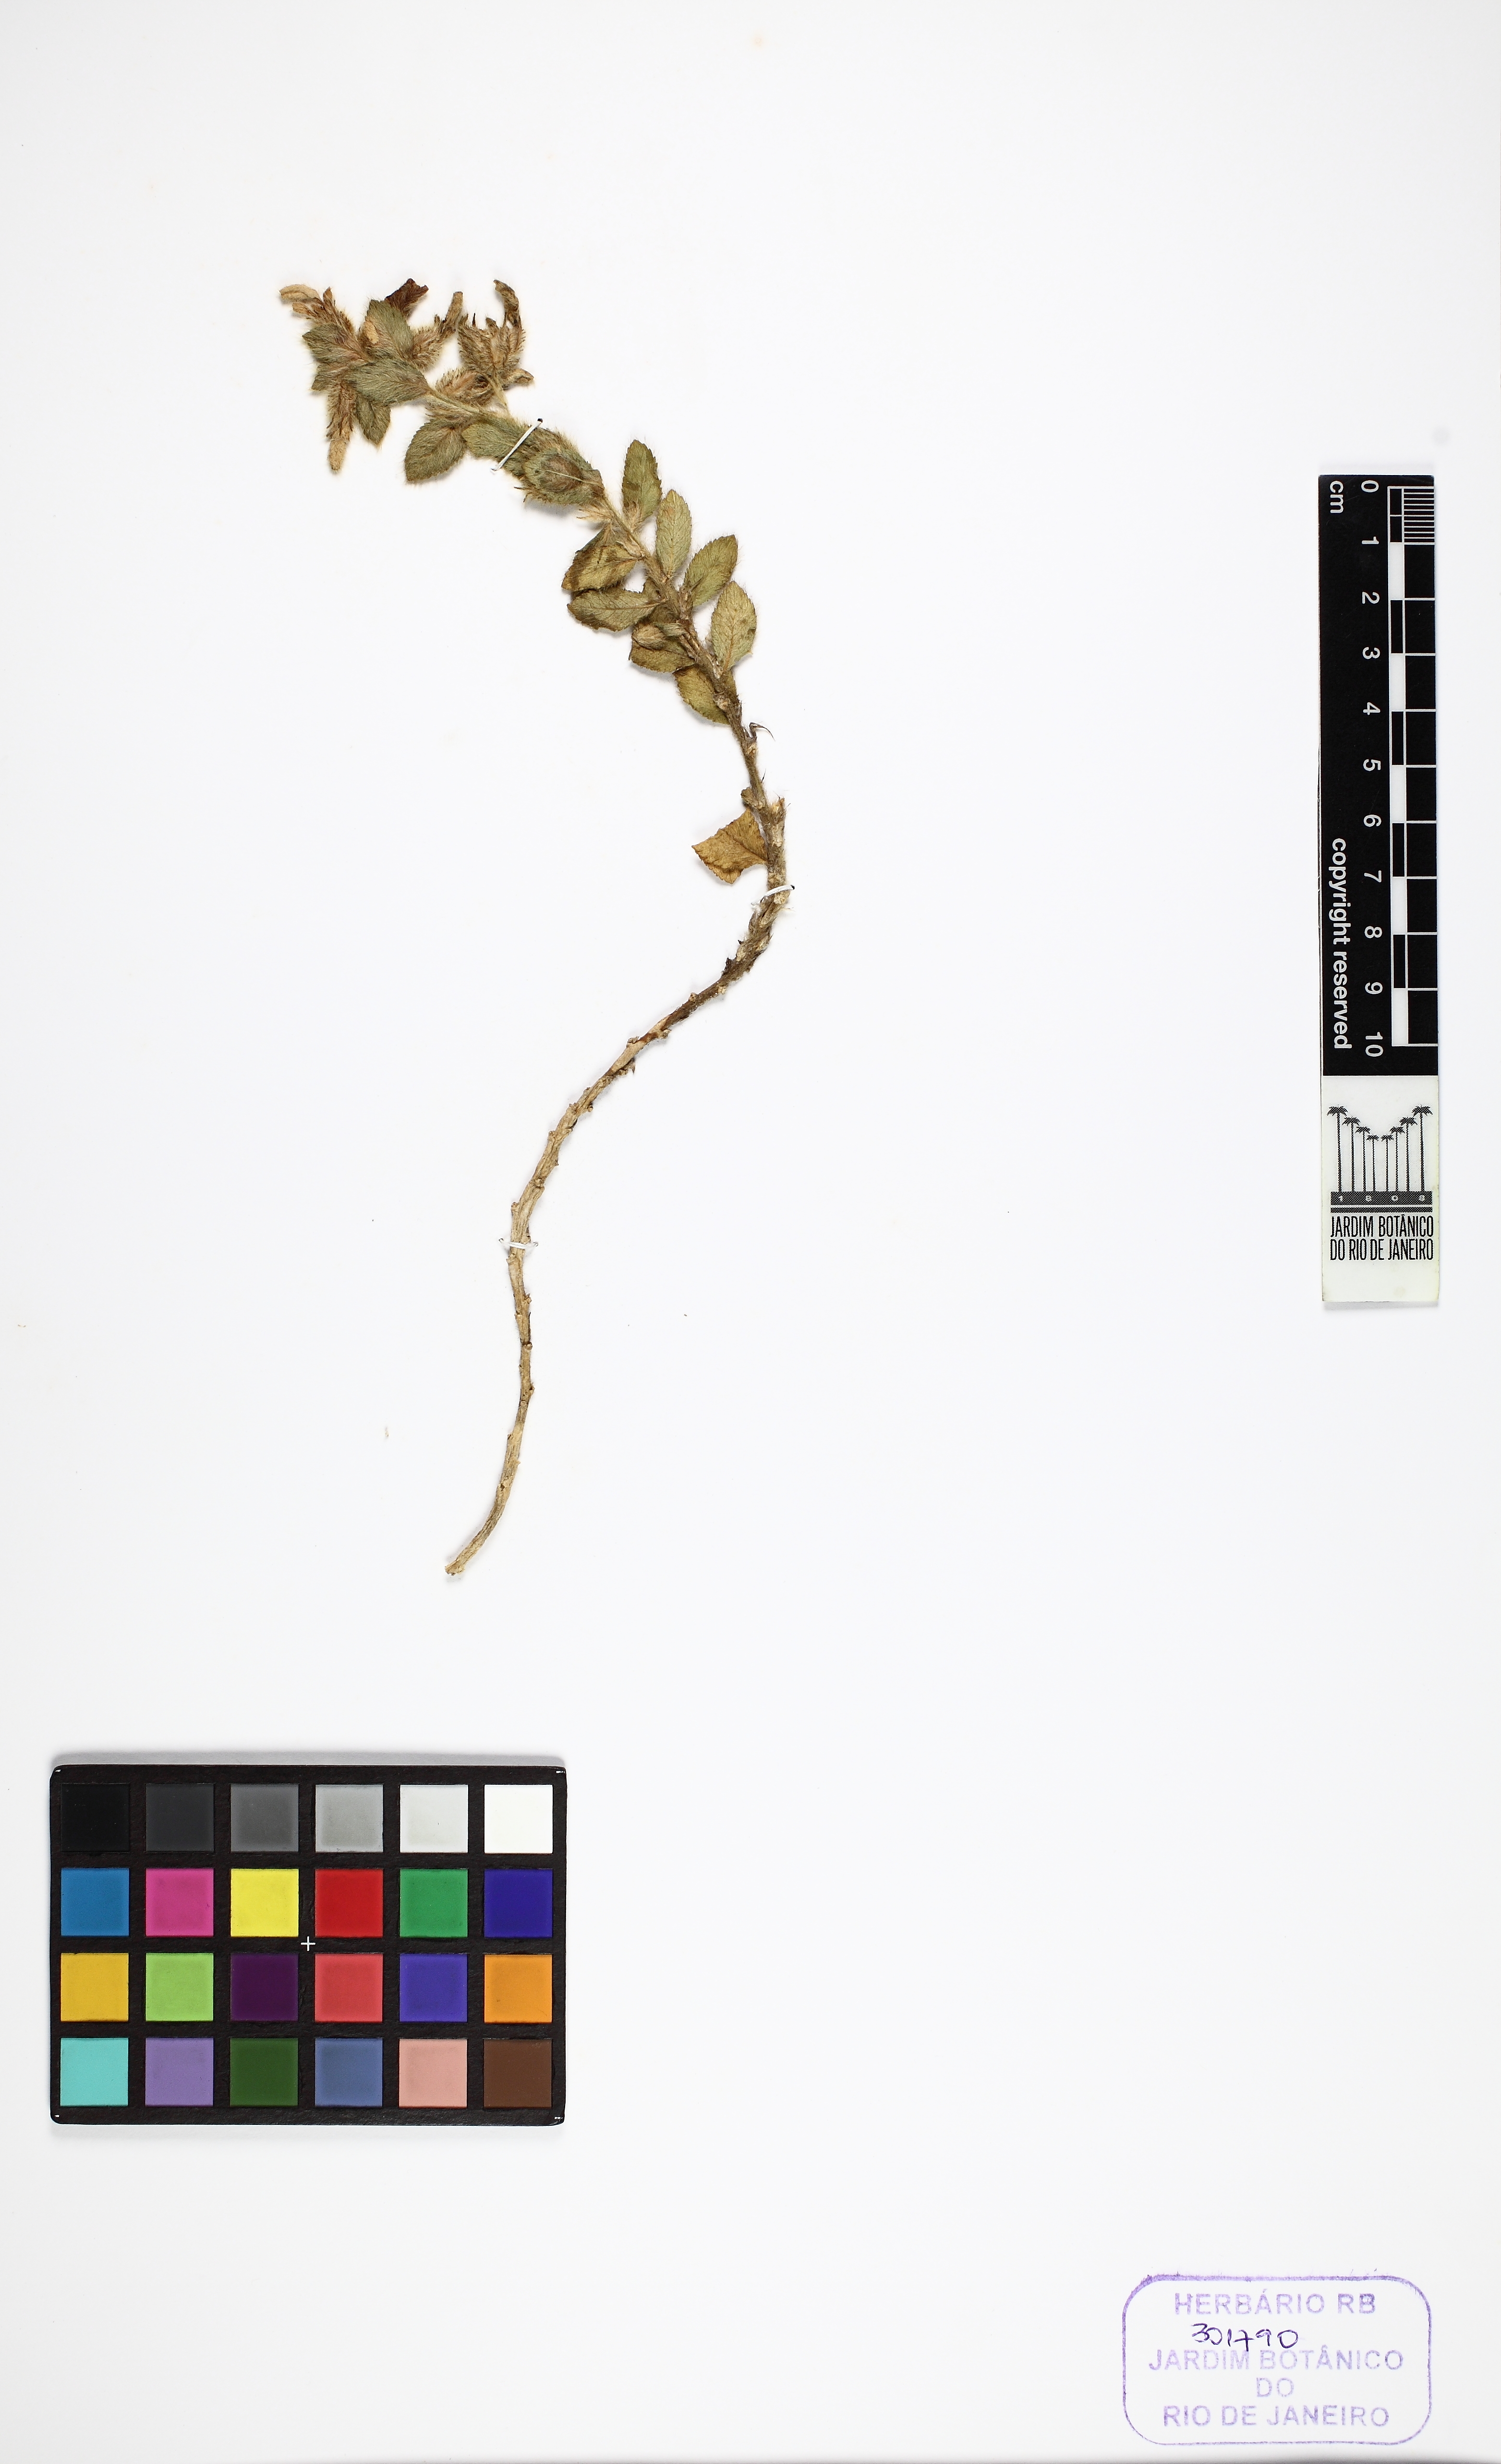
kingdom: Plantae
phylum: Tracheophyta
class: Magnoliopsida
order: Malpighiales
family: Violaceae
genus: Pombalia
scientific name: Pombalia calceolaria
